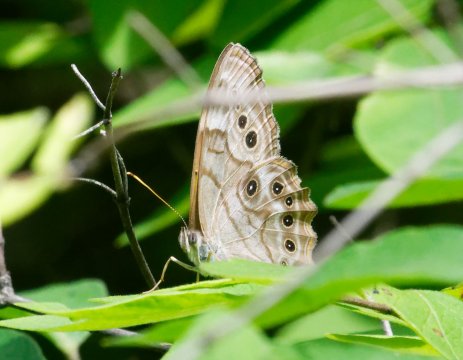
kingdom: Animalia
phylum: Arthropoda
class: Insecta
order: Lepidoptera
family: Nymphalidae
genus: Lethe
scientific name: Lethe anthedon
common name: Northern Pearly-Eye
